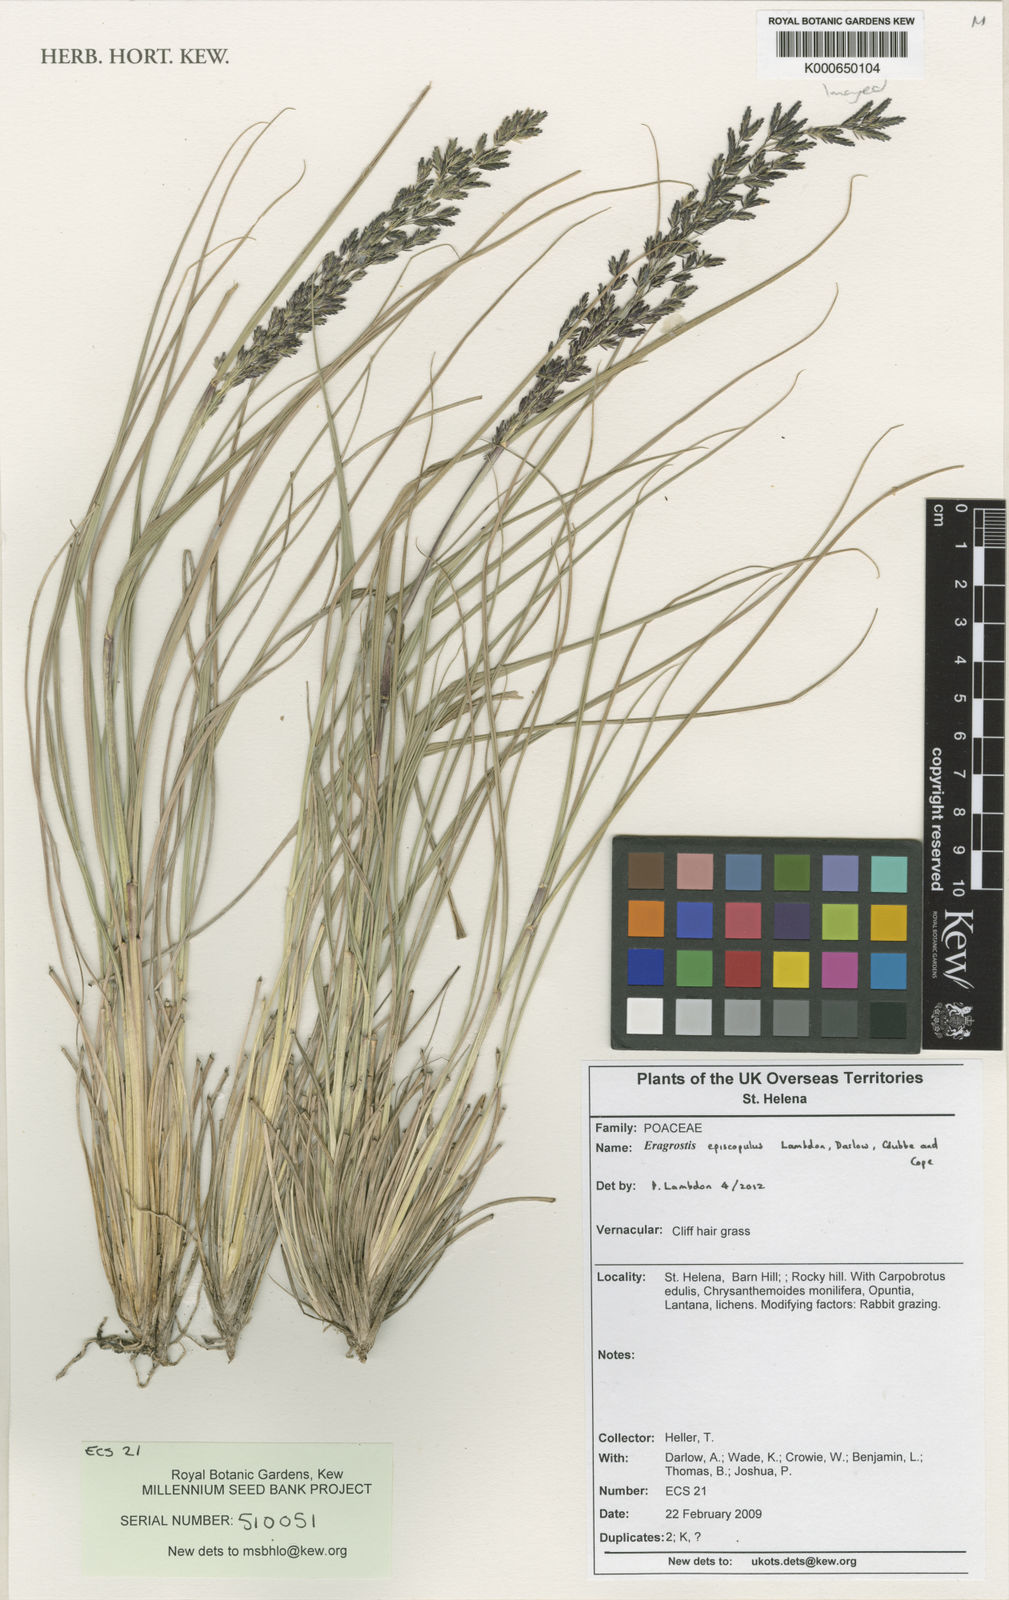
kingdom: Plantae
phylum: Tracheophyta
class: Liliopsida
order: Poales
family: Poaceae
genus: Eragrostis
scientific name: Eragrostis episcopulus
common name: Cliff hair grass
